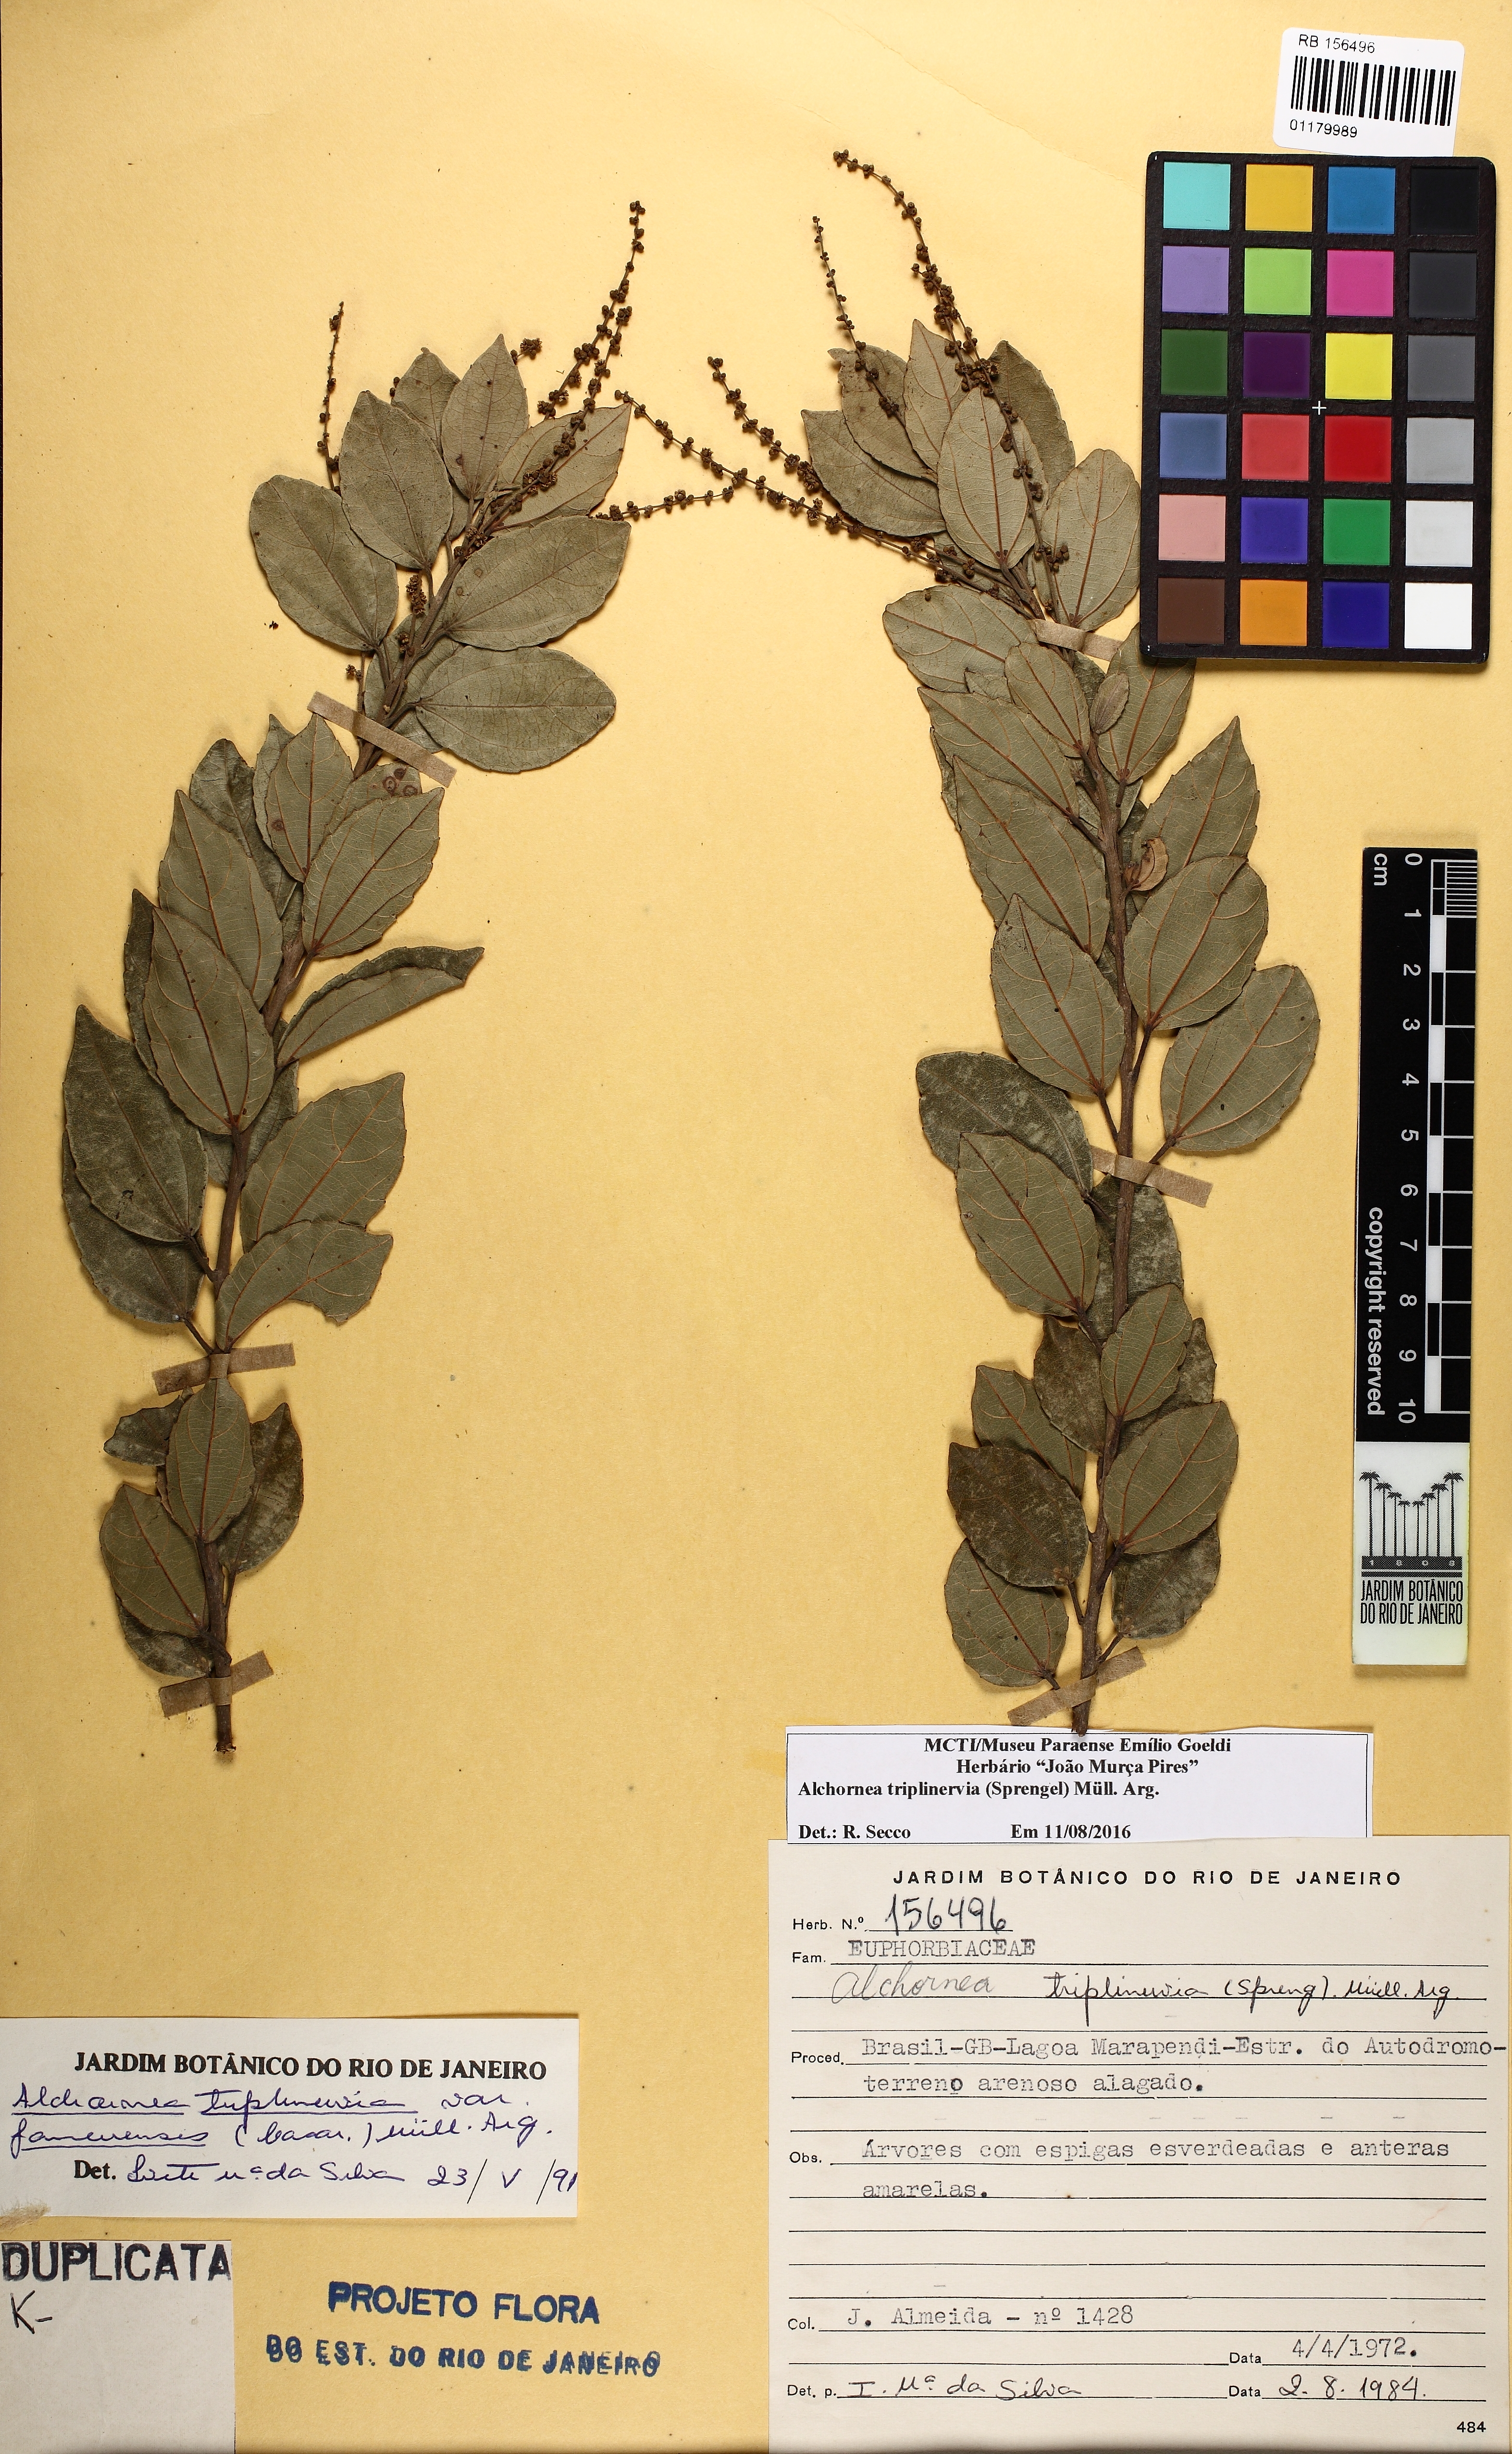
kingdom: Plantae
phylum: Tracheophyta
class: Magnoliopsida
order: Malpighiales
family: Euphorbiaceae
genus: Alchornea
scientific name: Alchornea triplinervia
